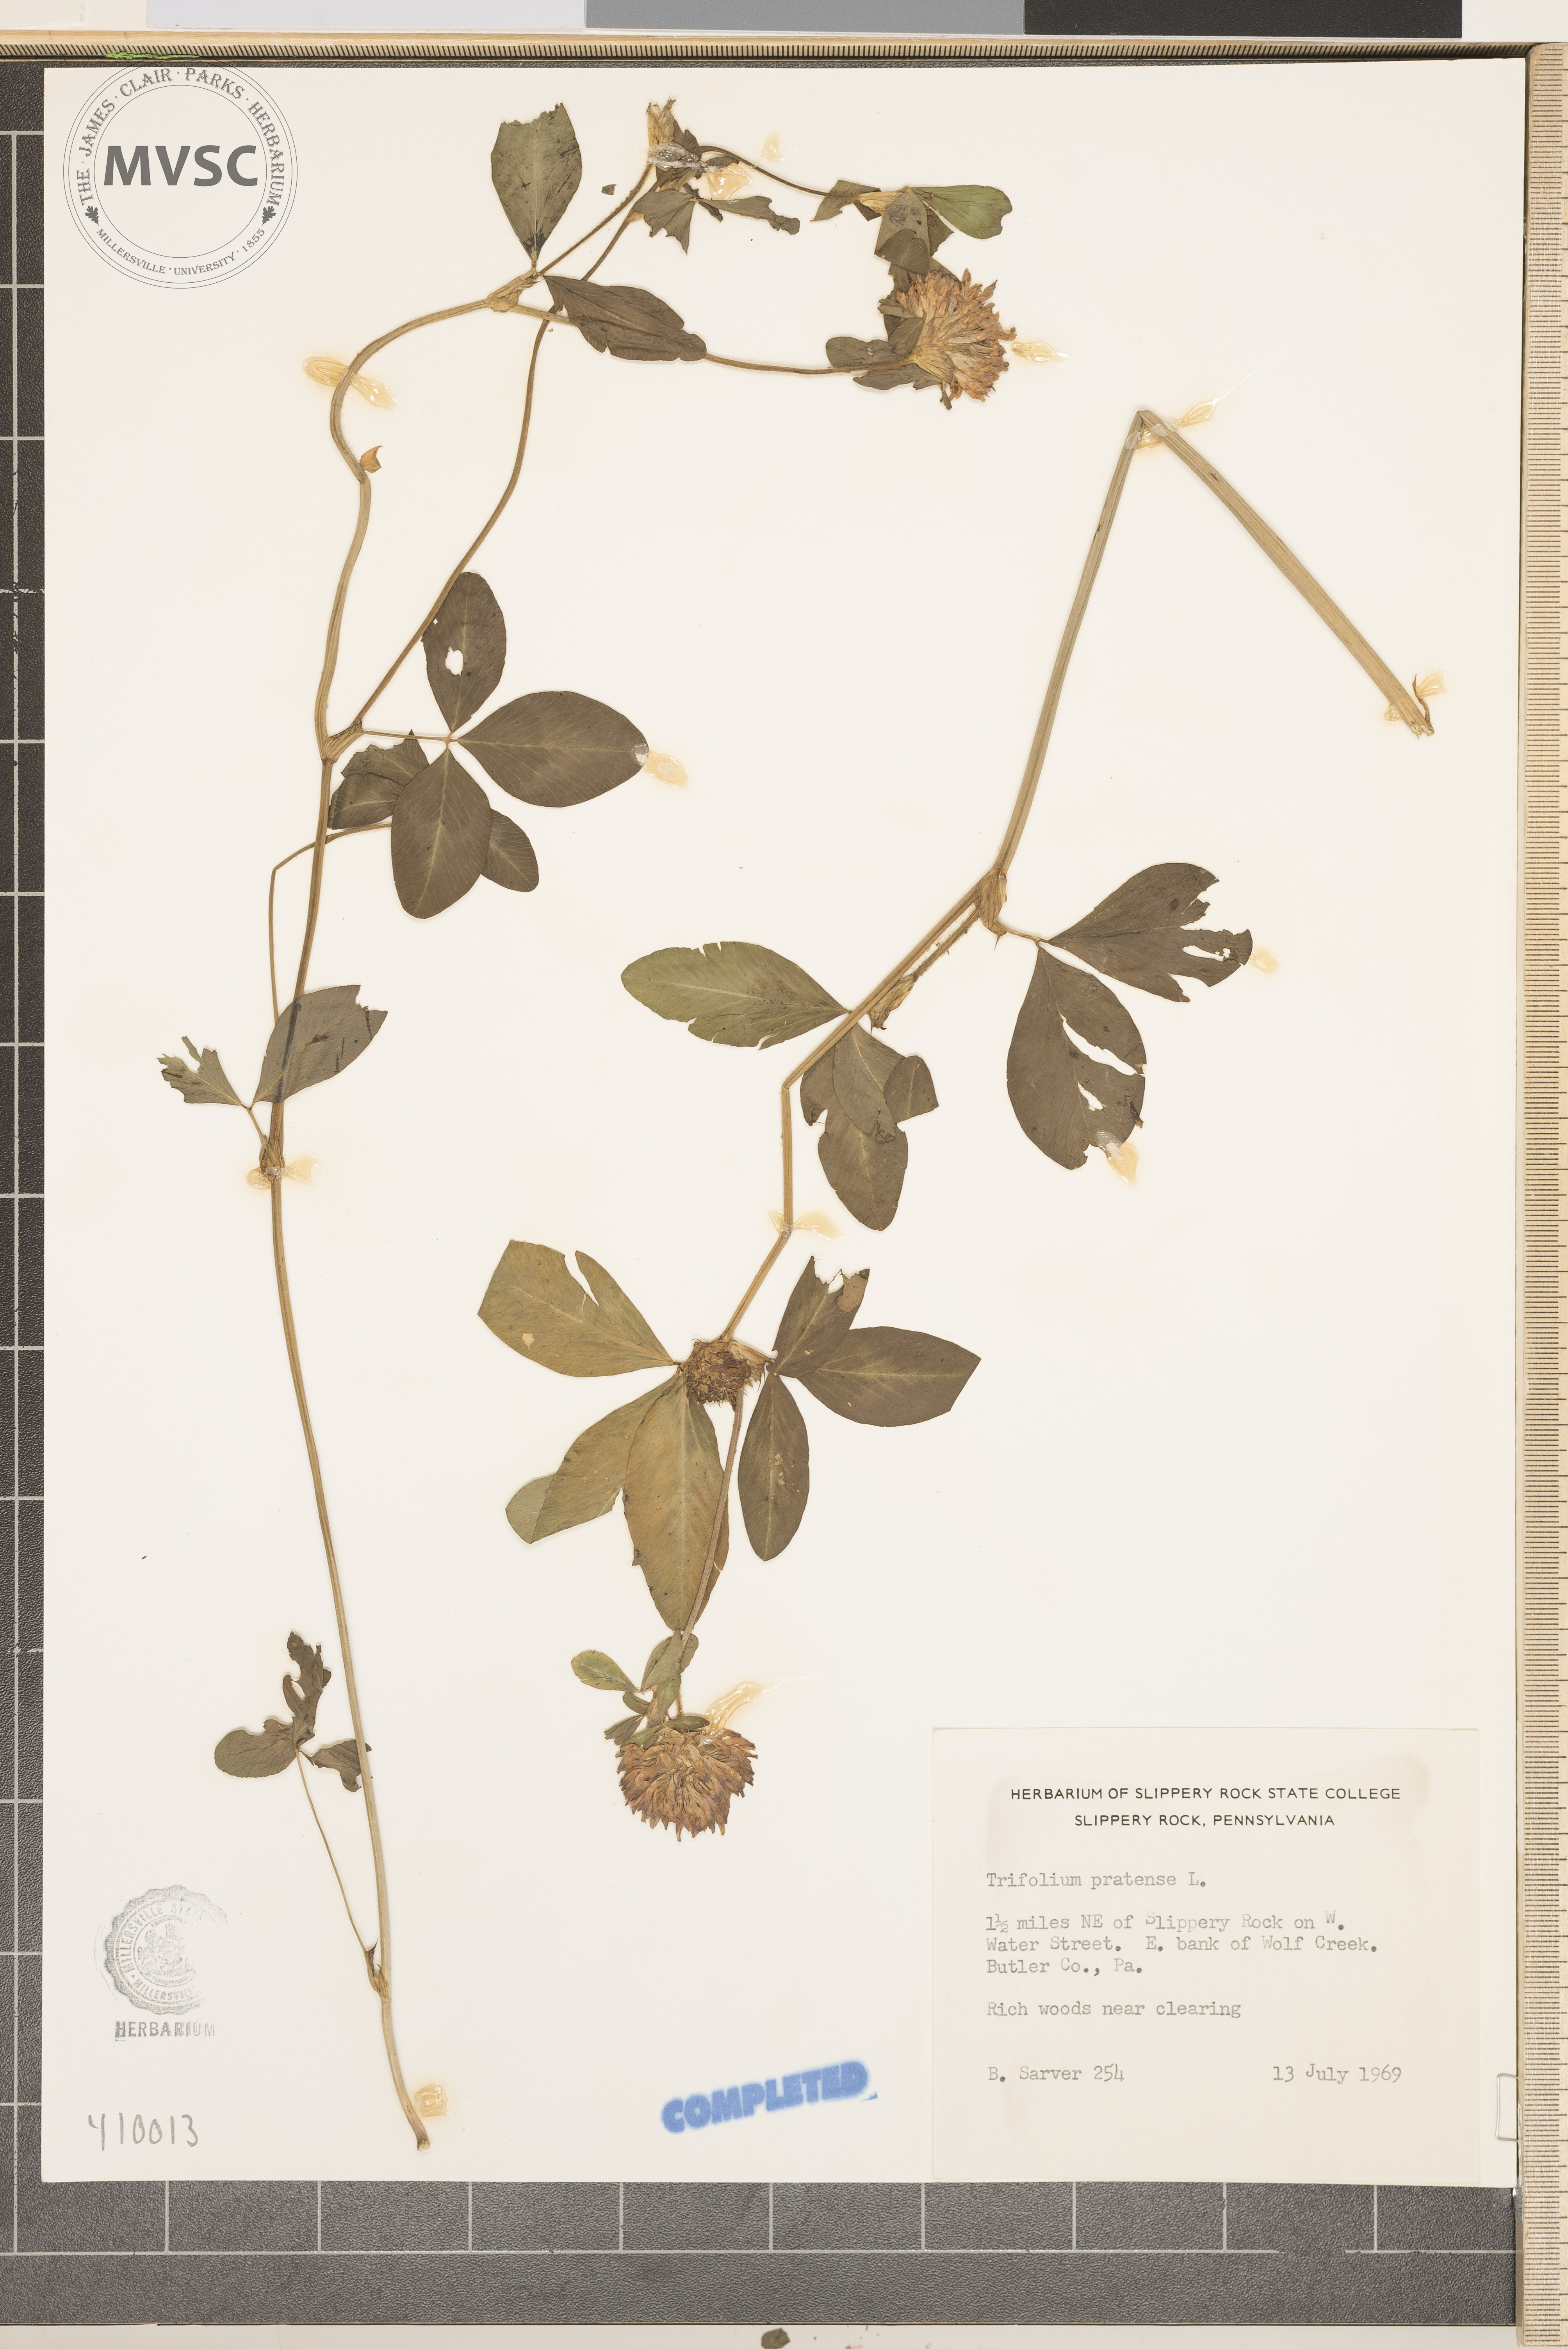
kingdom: Plantae
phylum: Tracheophyta
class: Magnoliopsida
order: Fabales
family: Fabaceae
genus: Trifolium
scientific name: Trifolium pratense
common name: Red clover
